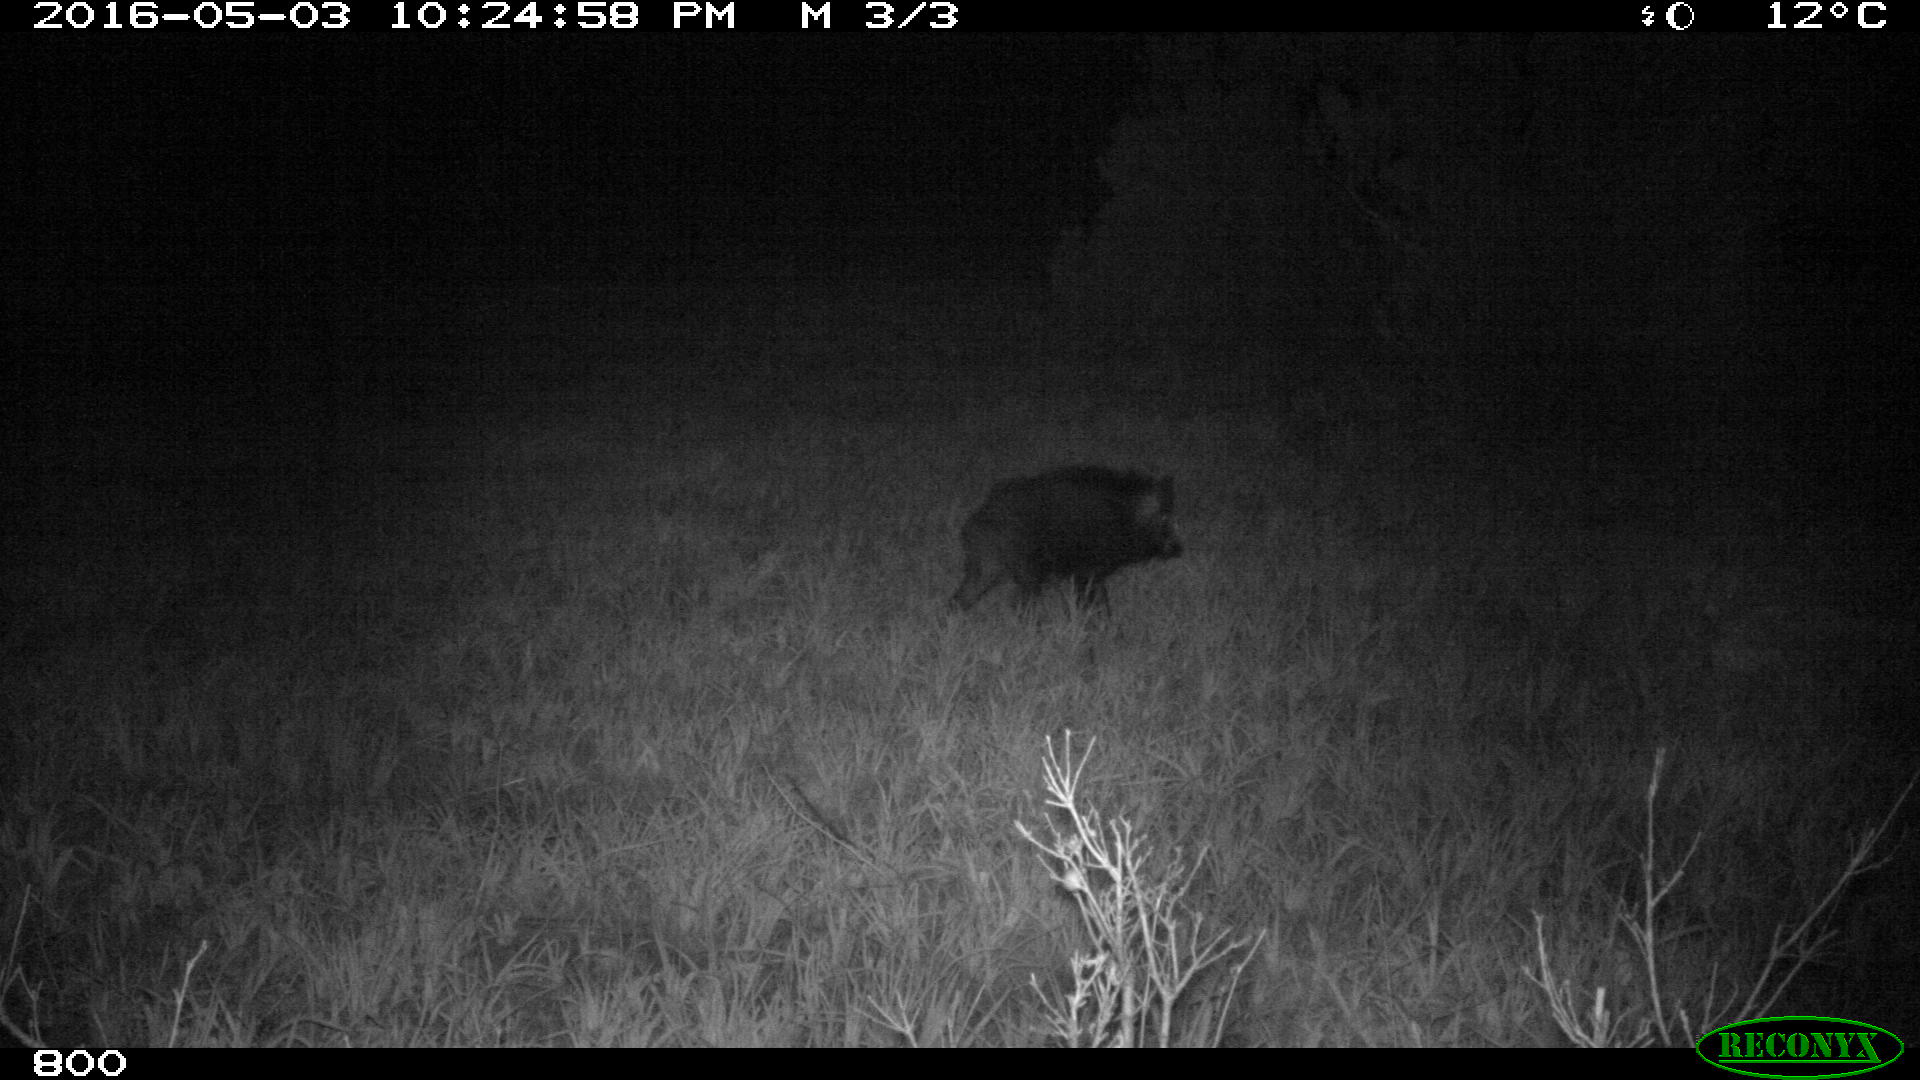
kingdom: Animalia
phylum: Chordata
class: Mammalia
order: Artiodactyla
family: Suidae
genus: Sus
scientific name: Sus scrofa
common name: Wild boar
